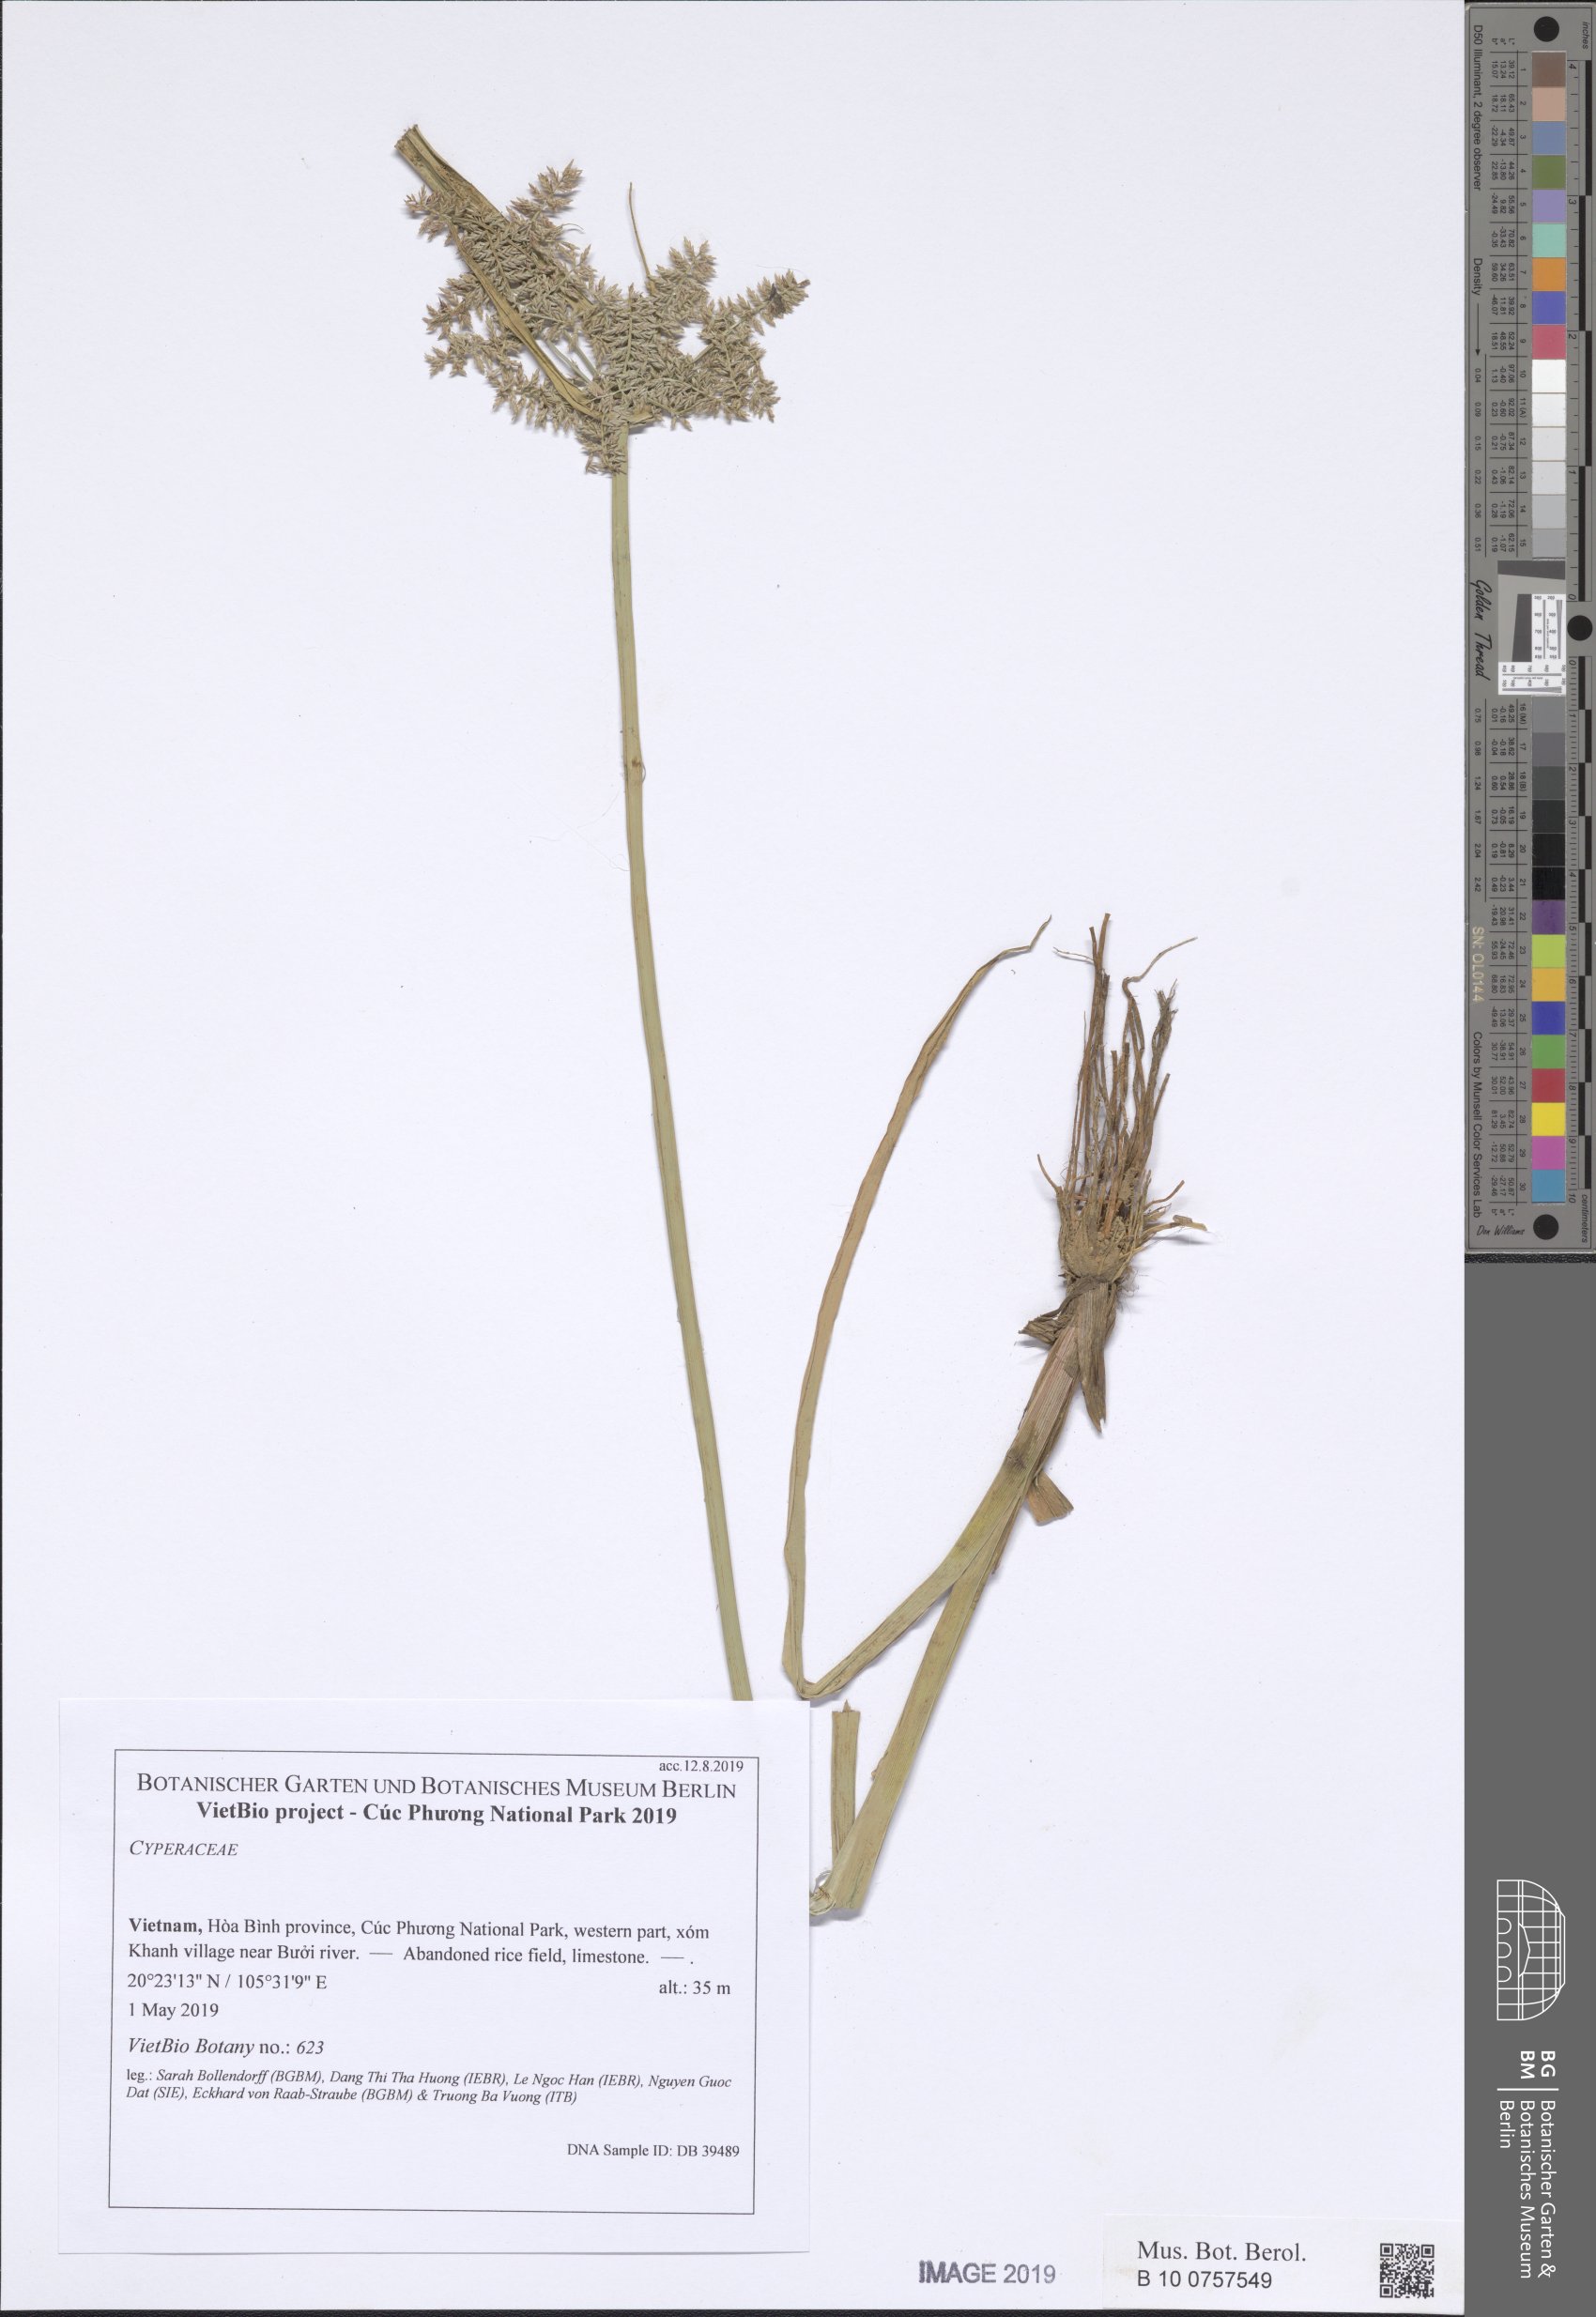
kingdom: Plantae
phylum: Tracheophyta
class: Liliopsida
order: Poales
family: Cyperaceae
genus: Cyperus
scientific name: Cyperus digitatus
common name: Finger flatsedge
